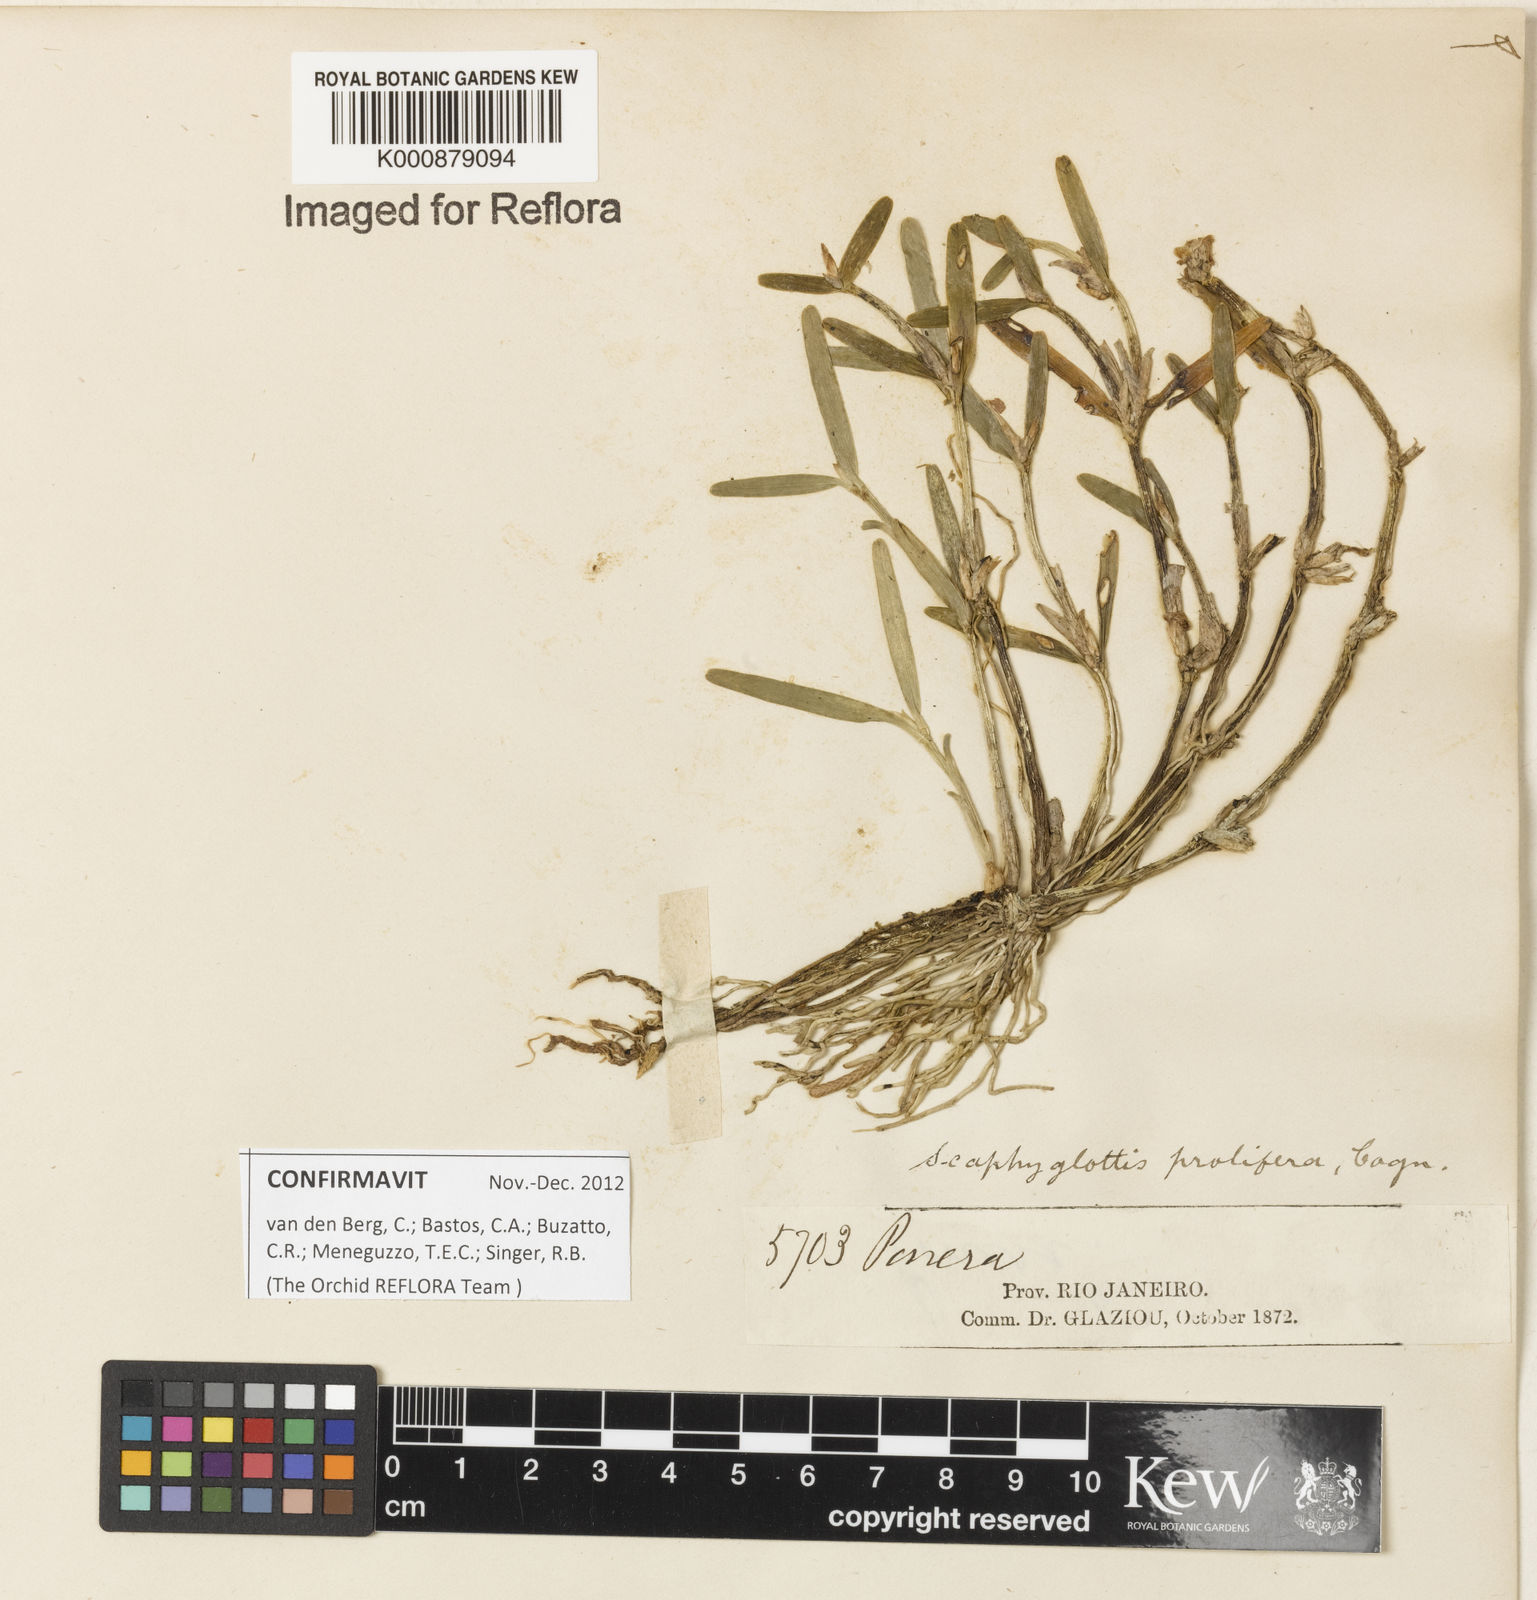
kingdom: Plantae
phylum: Tracheophyta
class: Liliopsida
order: Asparagales
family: Orchidaceae
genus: Scaphyglottis
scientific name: Scaphyglottis prolifera
